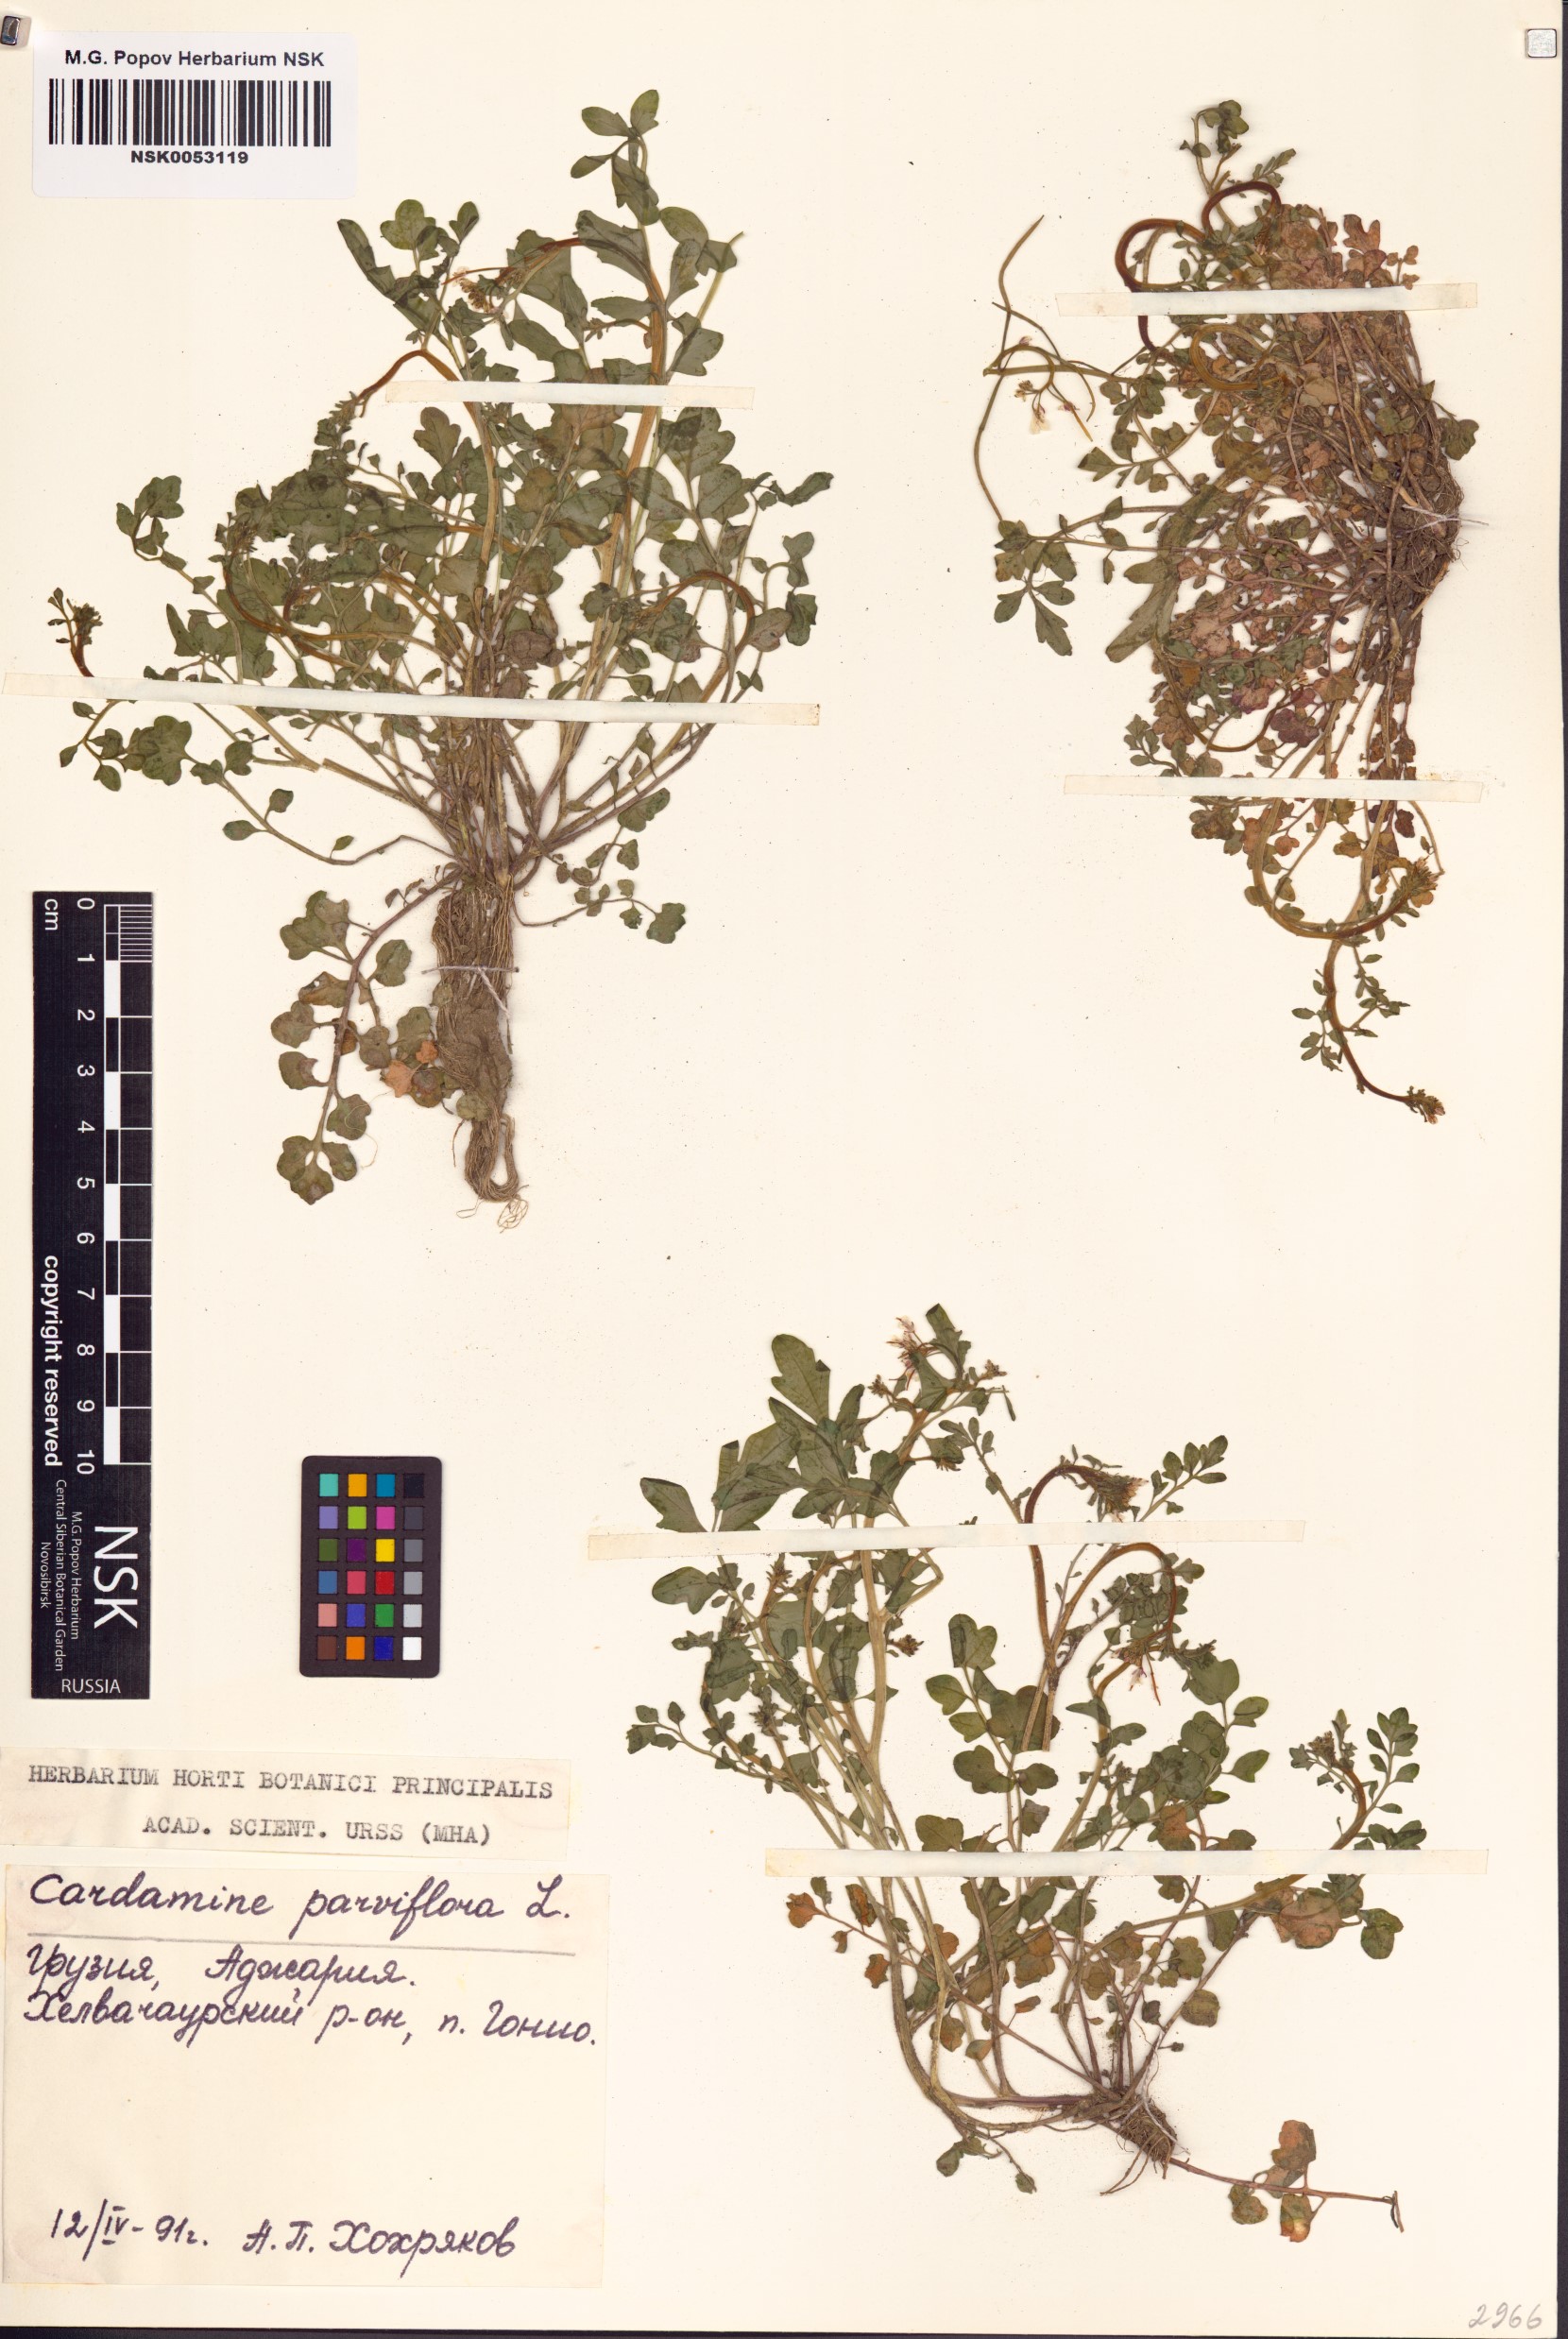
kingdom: Plantae
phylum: Tracheophyta
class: Magnoliopsida
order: Brassicales
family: Brassicaceae
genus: Cardamine
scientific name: Cardamine parviflora
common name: Sand bittercress
